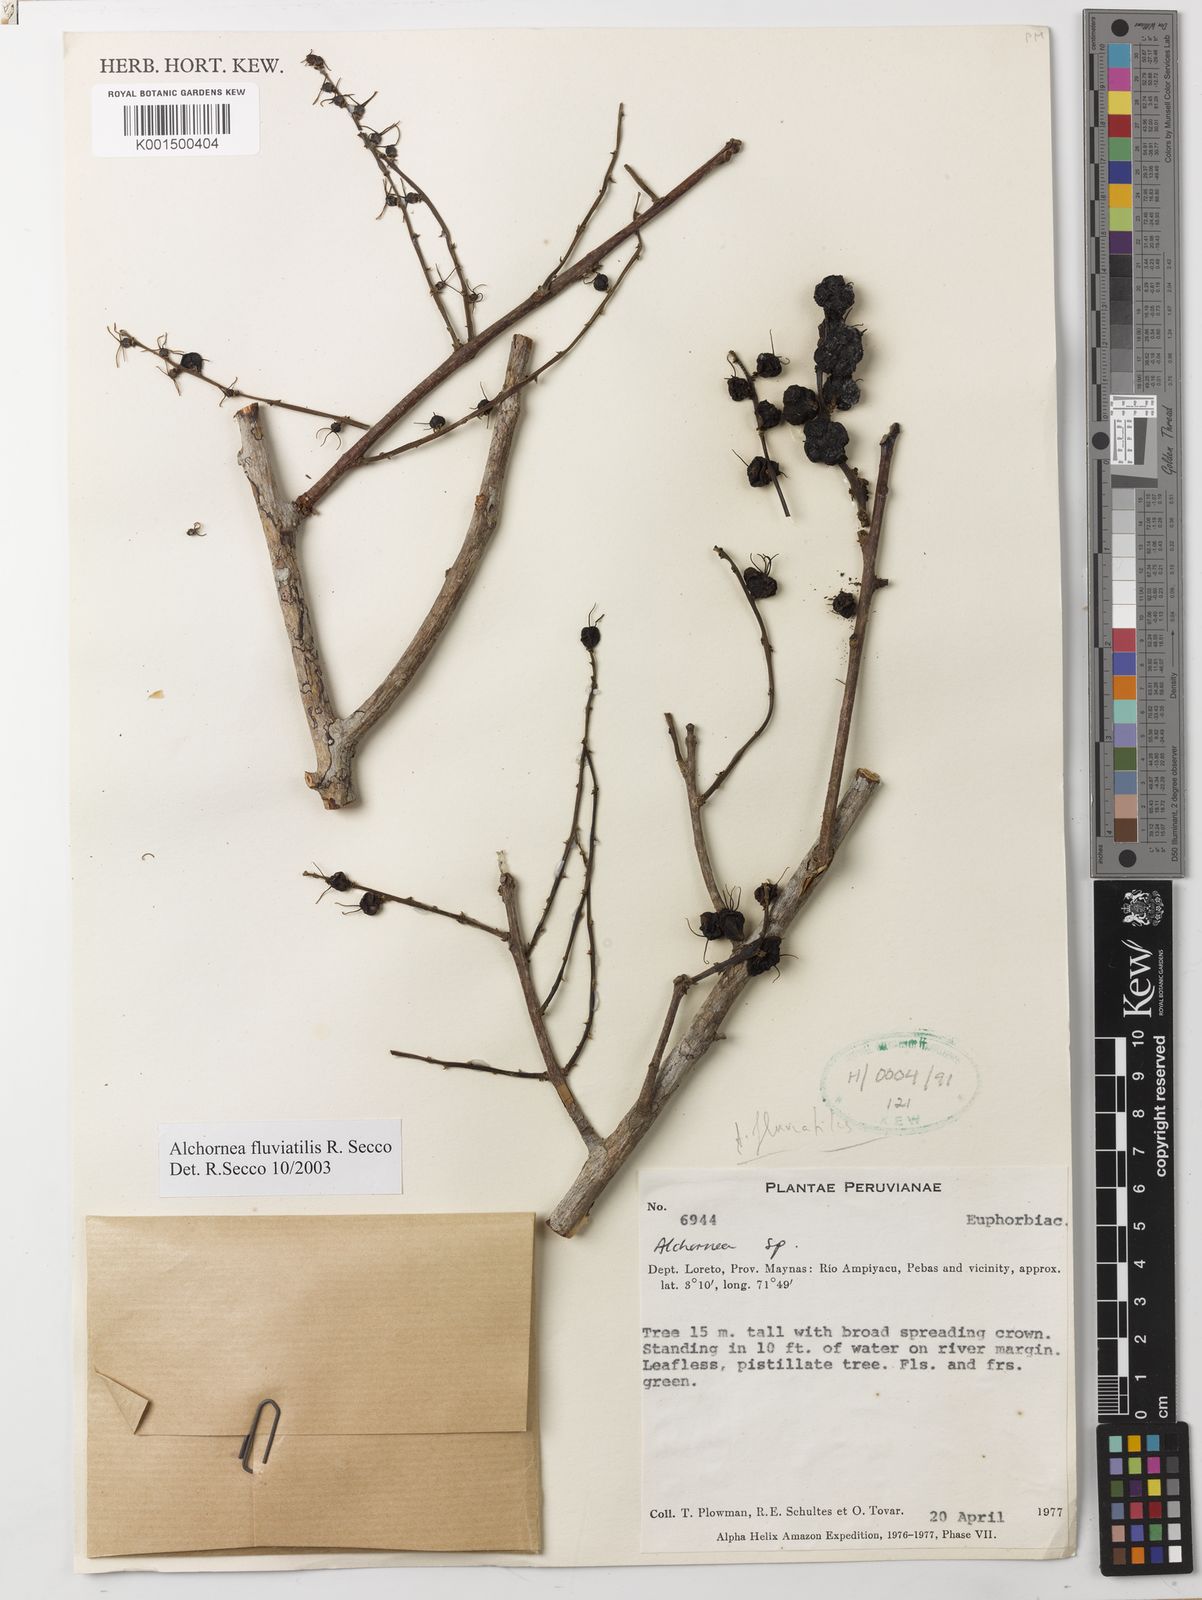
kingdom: Plantae
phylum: Tracheophyta
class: Magnoliopsida
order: Malpighiales
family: Euphorbiaceae
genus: Alchornea
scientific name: Alchornea fluviatilis
